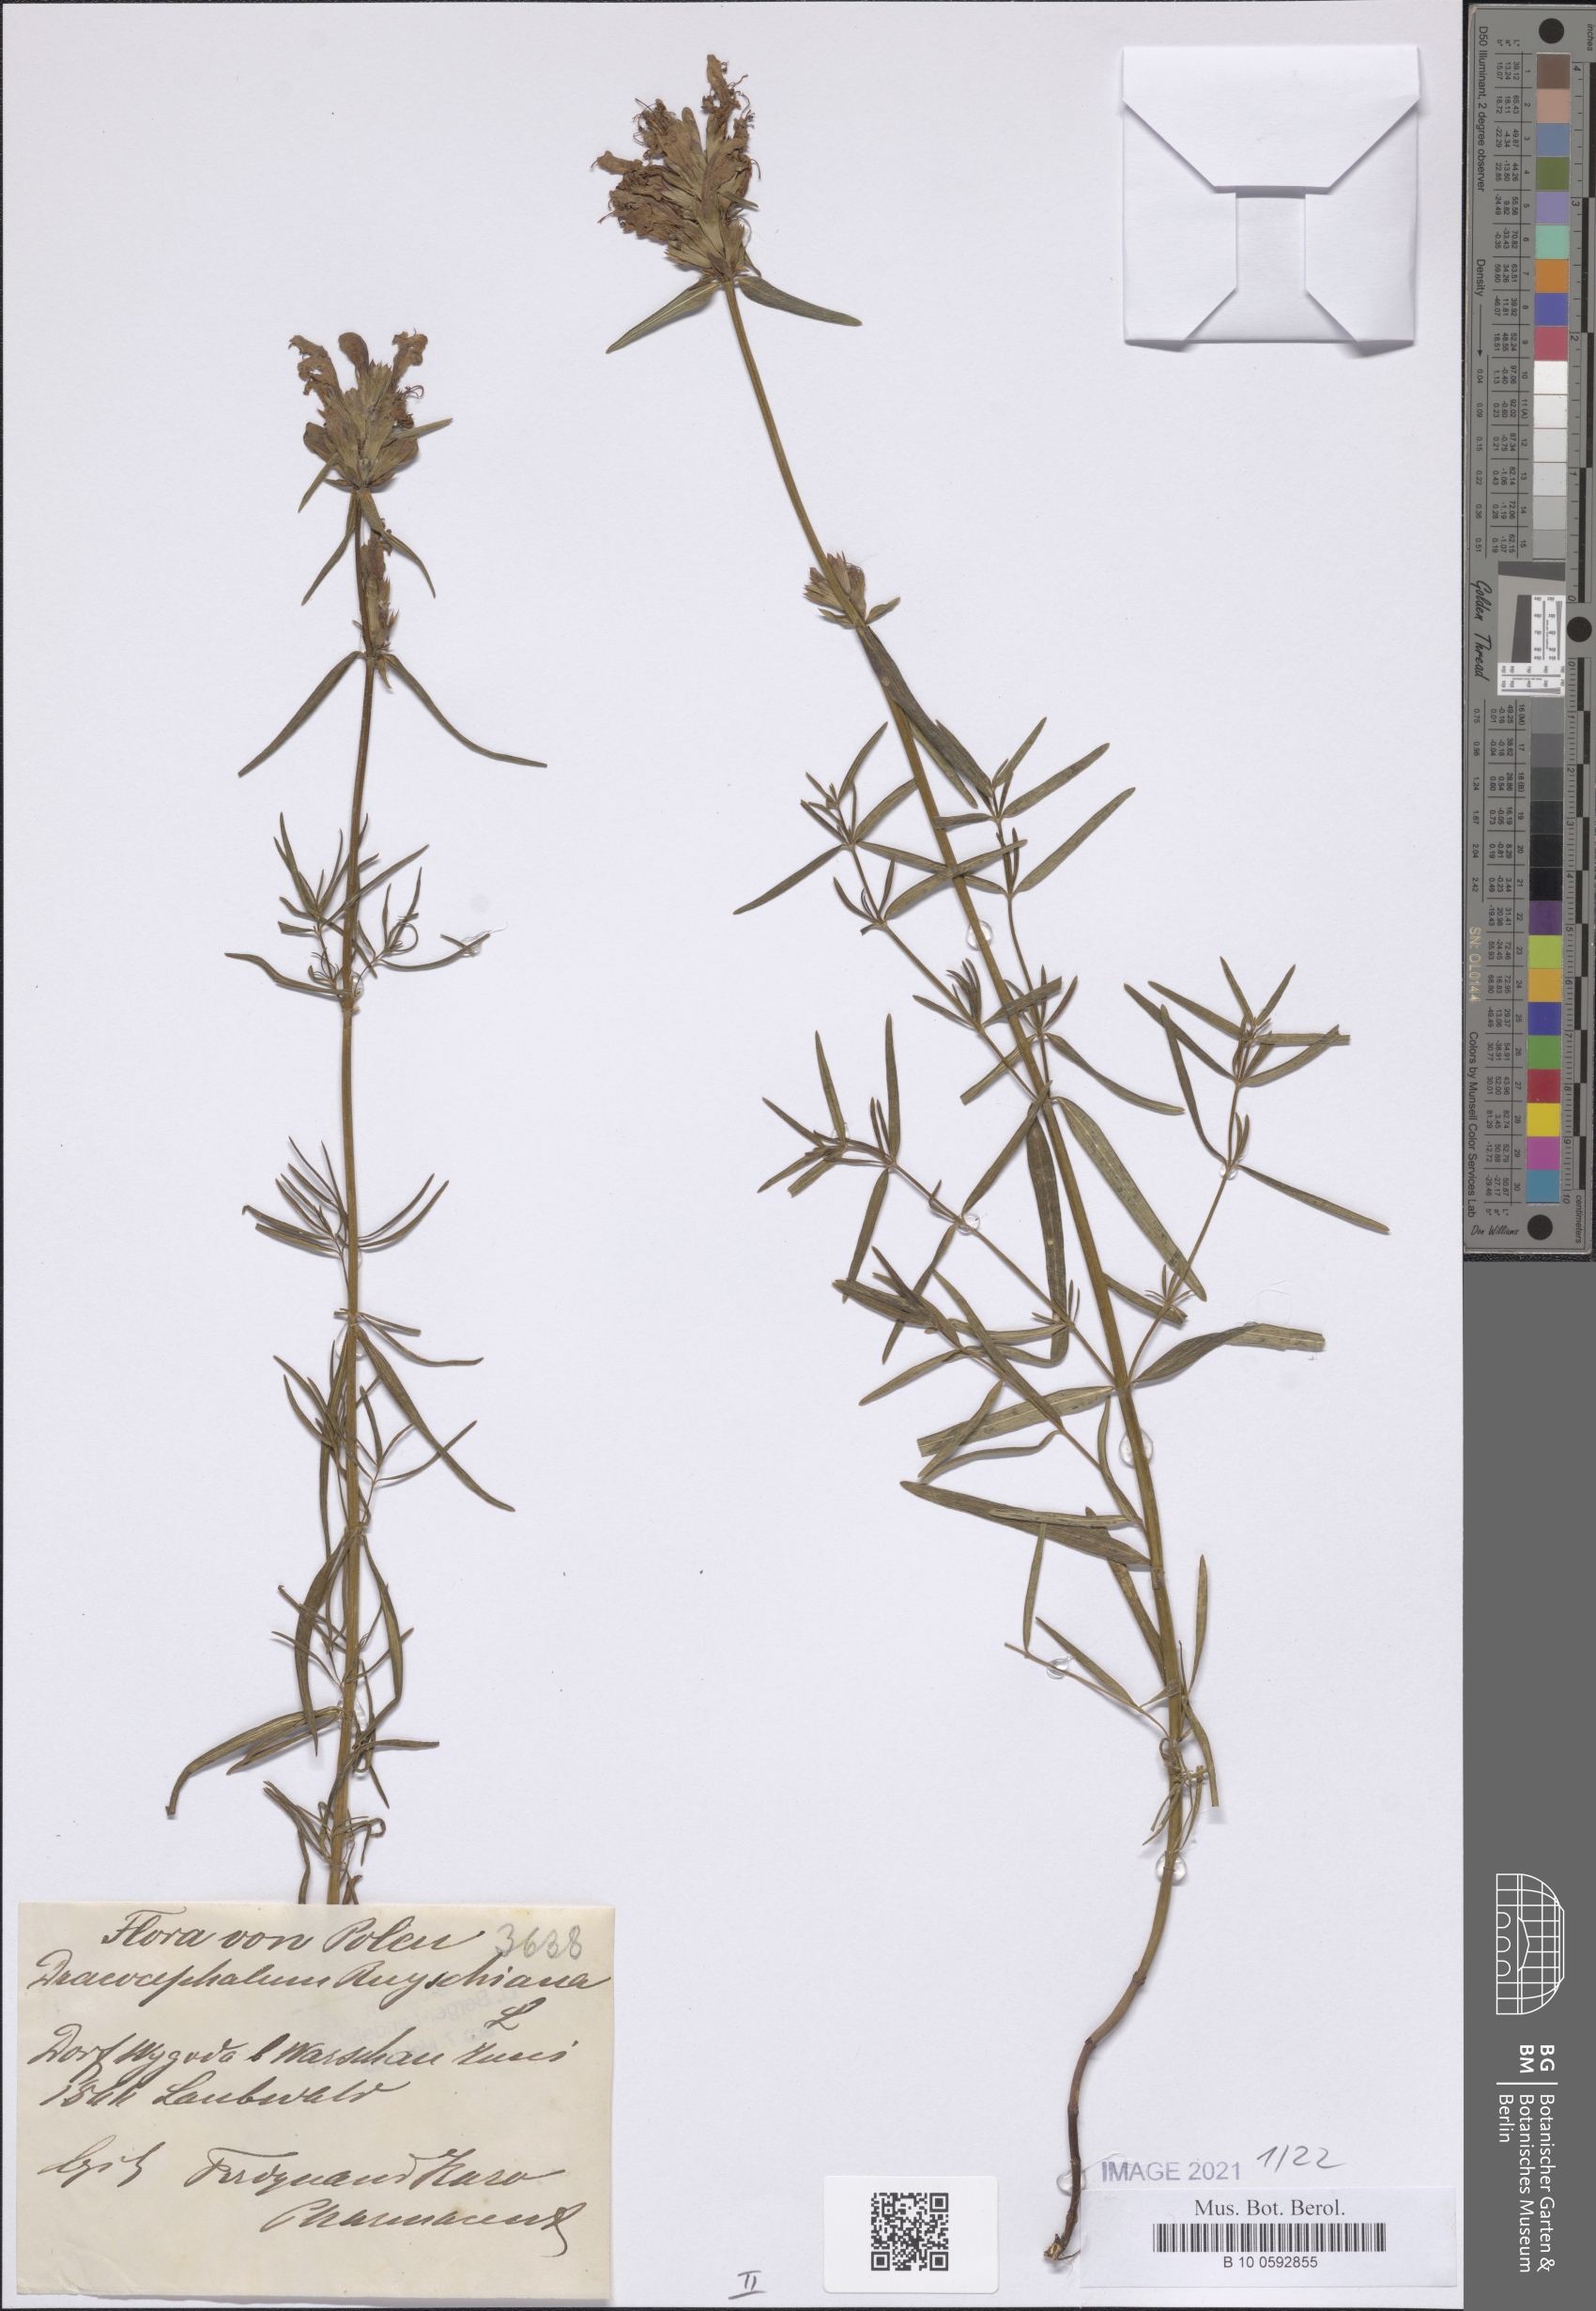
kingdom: Plantae
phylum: Tracheophyta
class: Magnoliopsida
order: Lamiales
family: Lamiaceae
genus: Dracocephalum
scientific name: Dracocephalum ruyschiana
